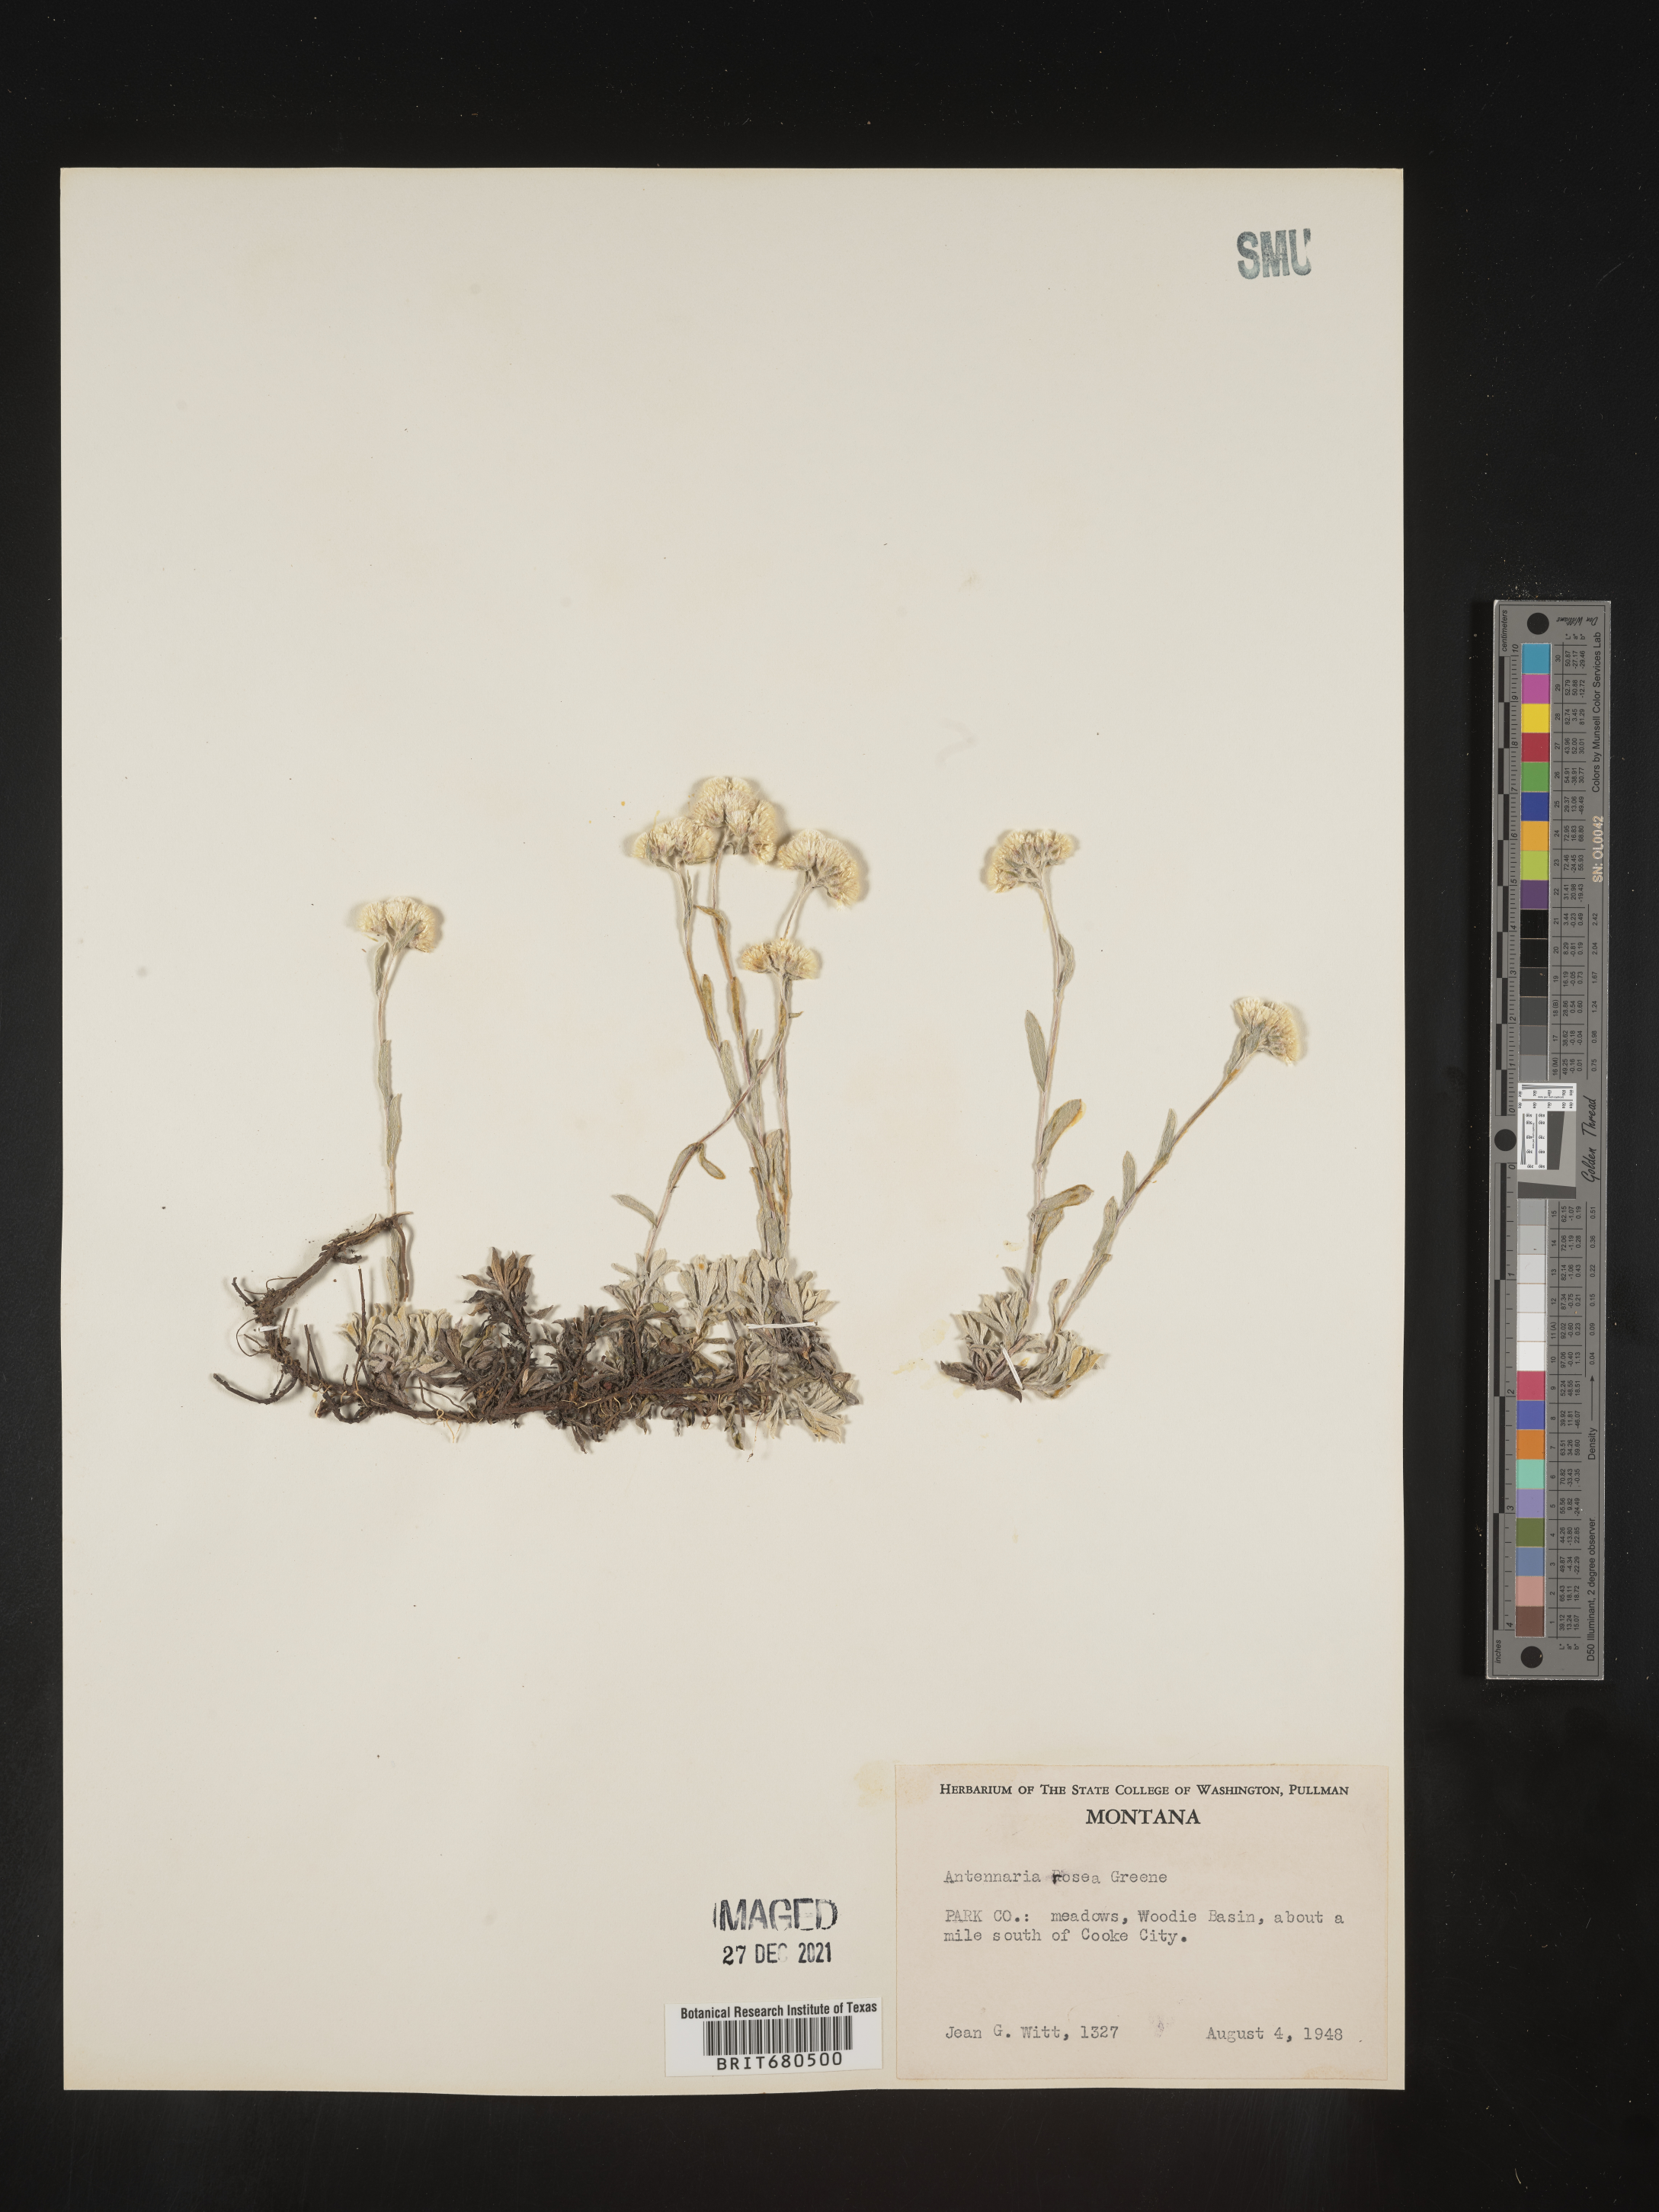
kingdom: Plantae
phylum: Tracheophyta
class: Magnoliopsida
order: Asterales
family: Asteraceae
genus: Antennaria
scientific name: Antennaria rosea
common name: Rosy pussytoes
